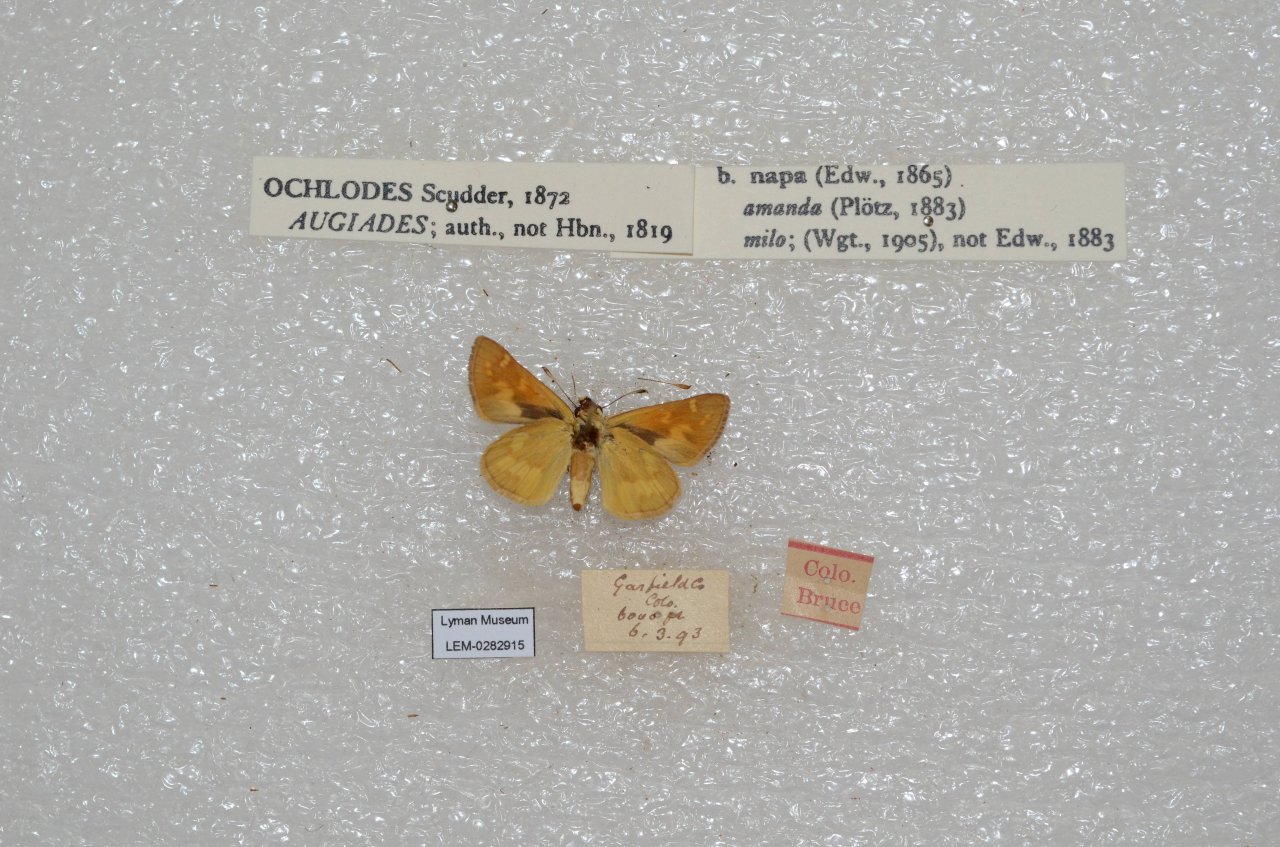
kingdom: Animalia
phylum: Arthropoda
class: Insecta
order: Lepidoptera
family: Hesperiidae
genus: Ochlodes
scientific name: Ochlodes sylvanoides
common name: Woodland Skipper
